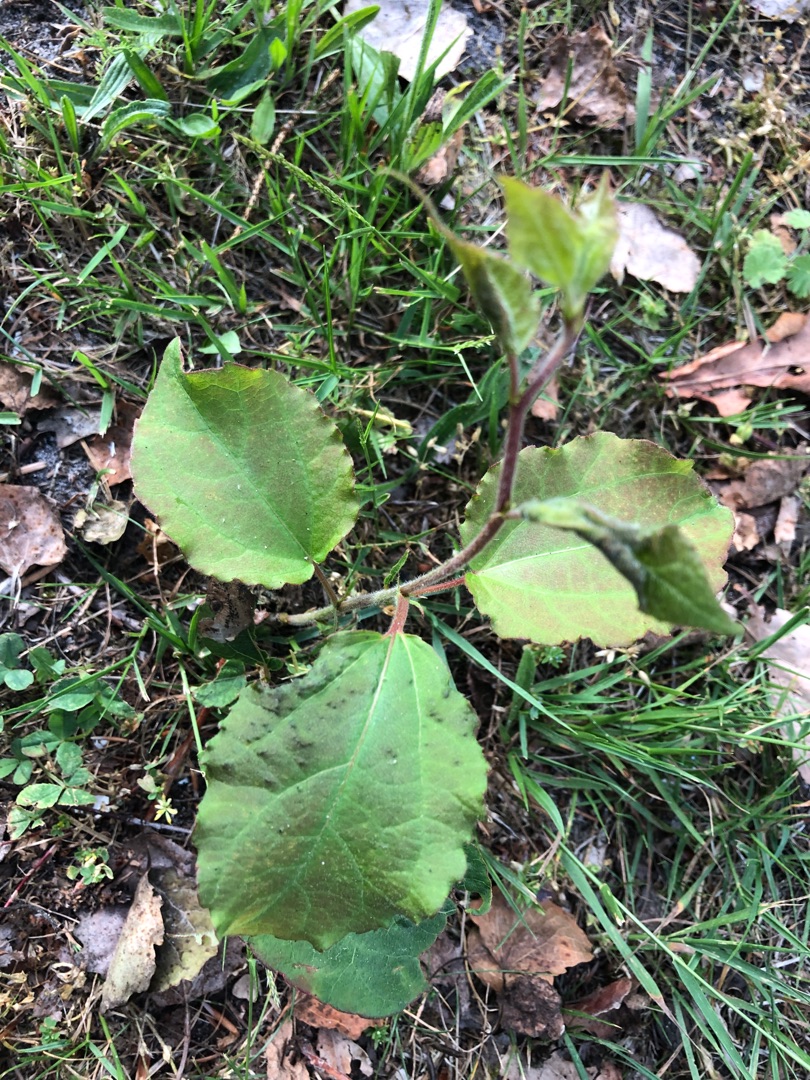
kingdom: Plantae
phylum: Tracheophyta
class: Magnoliopsida
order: Malpighiales
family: Salicaceae
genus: Populus
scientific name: Populus tremula
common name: Bævreasp
